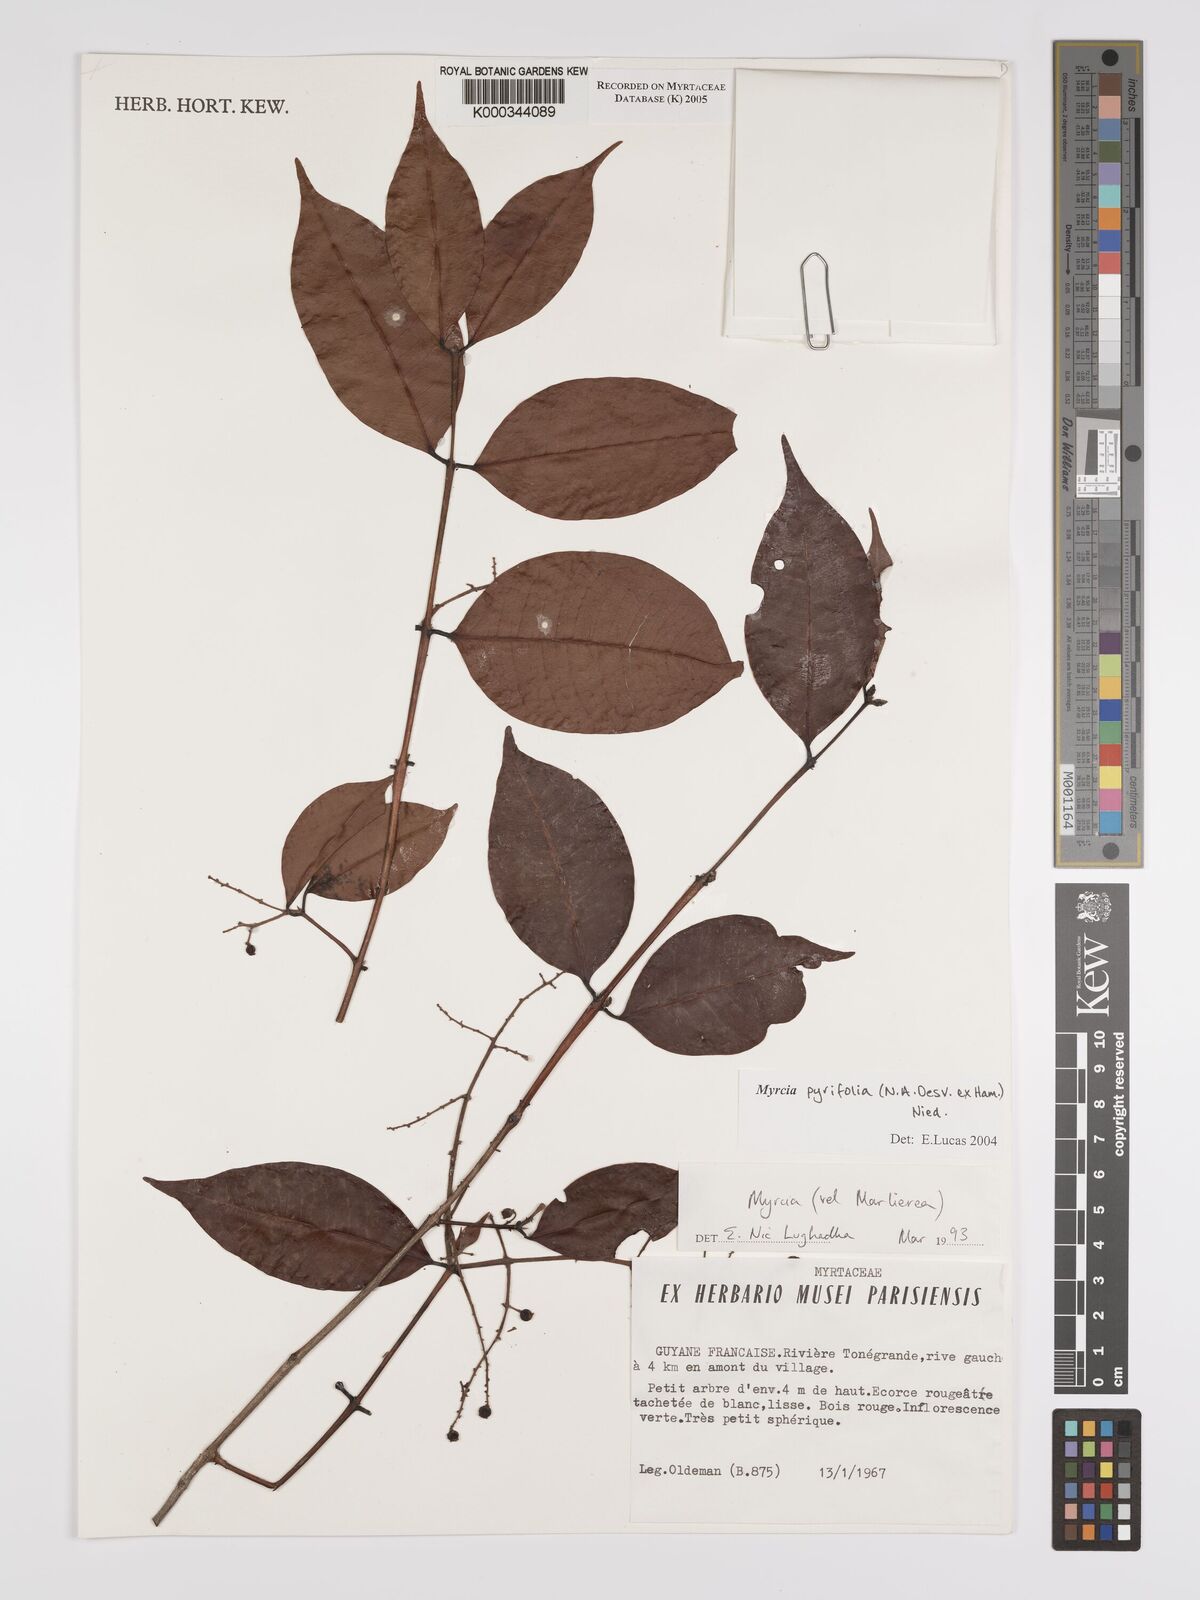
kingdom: Plantae
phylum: Tracheophyta
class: Magnoliopsida
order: Myrtales
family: Myrtaceae
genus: Myrcia
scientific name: Myrcia pyrifolia
